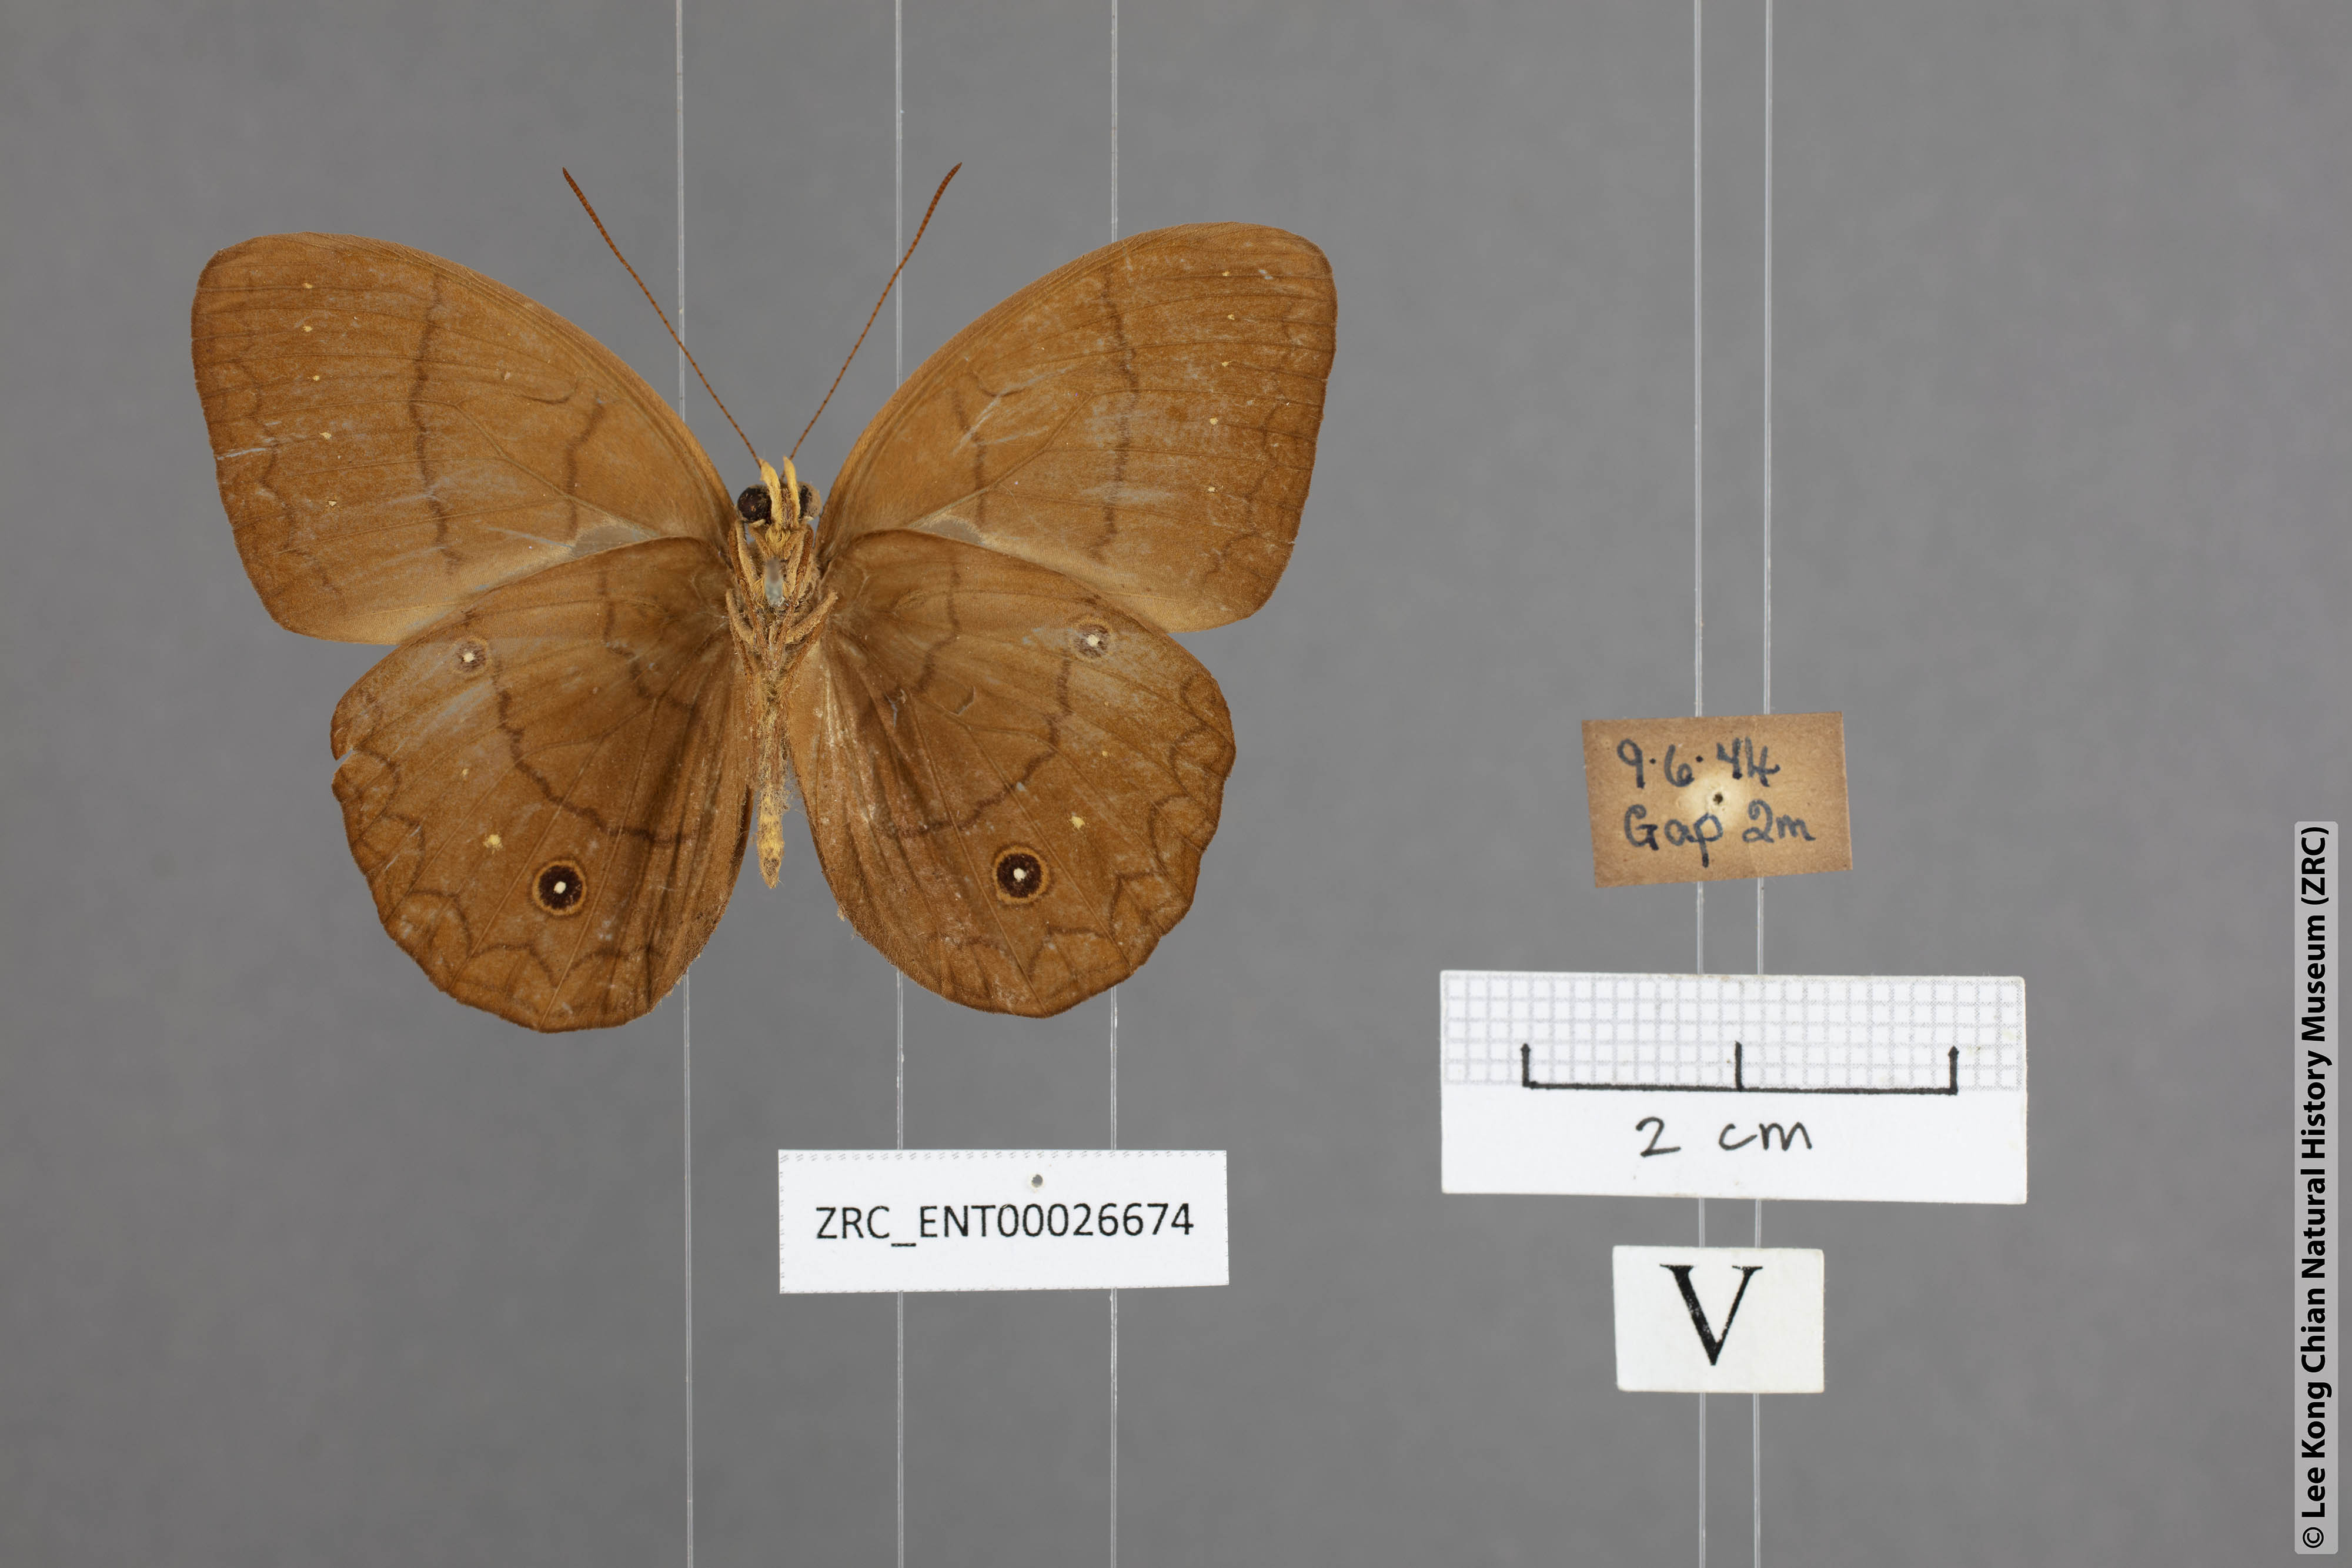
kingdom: Animalia
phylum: Arthropoda
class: Insecta
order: Lepidoptera
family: Nymphalidae
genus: Faunis
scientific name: Faunis gracilis
